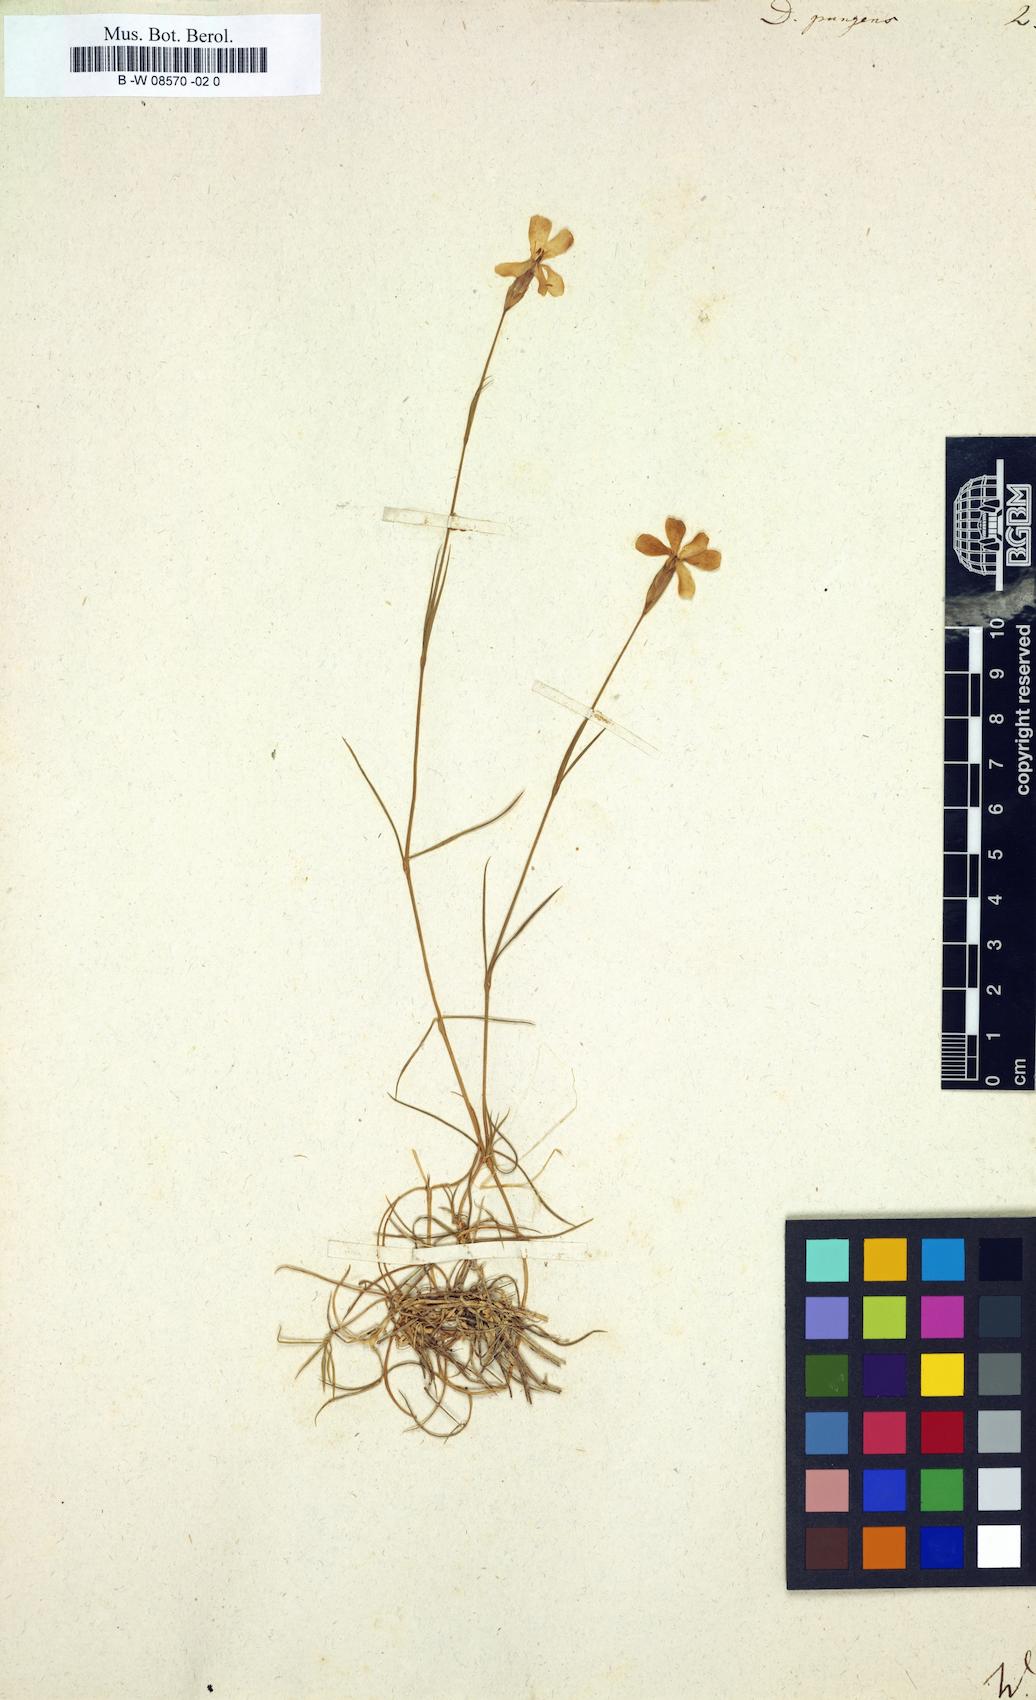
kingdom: Plantae
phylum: Tracheophyta
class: Magnoliopsida
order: Caryophyllales
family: Caryophyllaceae
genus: Dianthus
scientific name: Dianthus pungens
